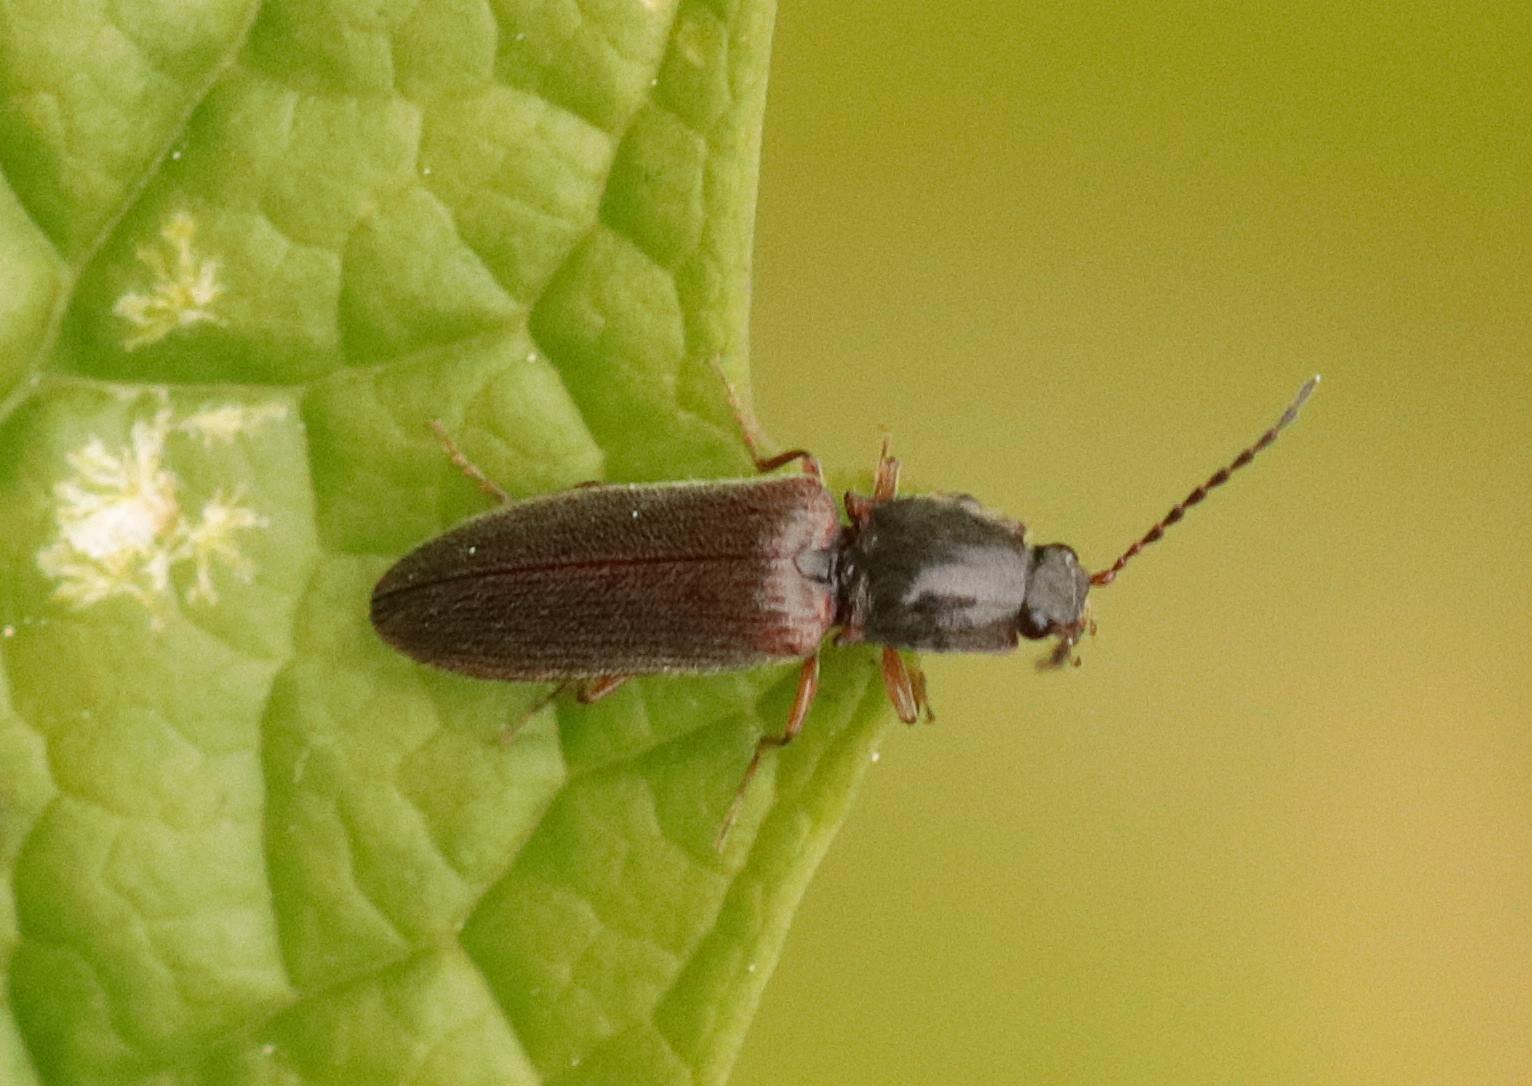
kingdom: Animalia
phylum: Arthropoda
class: Insecta
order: Coleoptera
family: Elateridae
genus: Athous
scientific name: Athous haemorrhoidalis
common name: Rødhalet busksmælder
